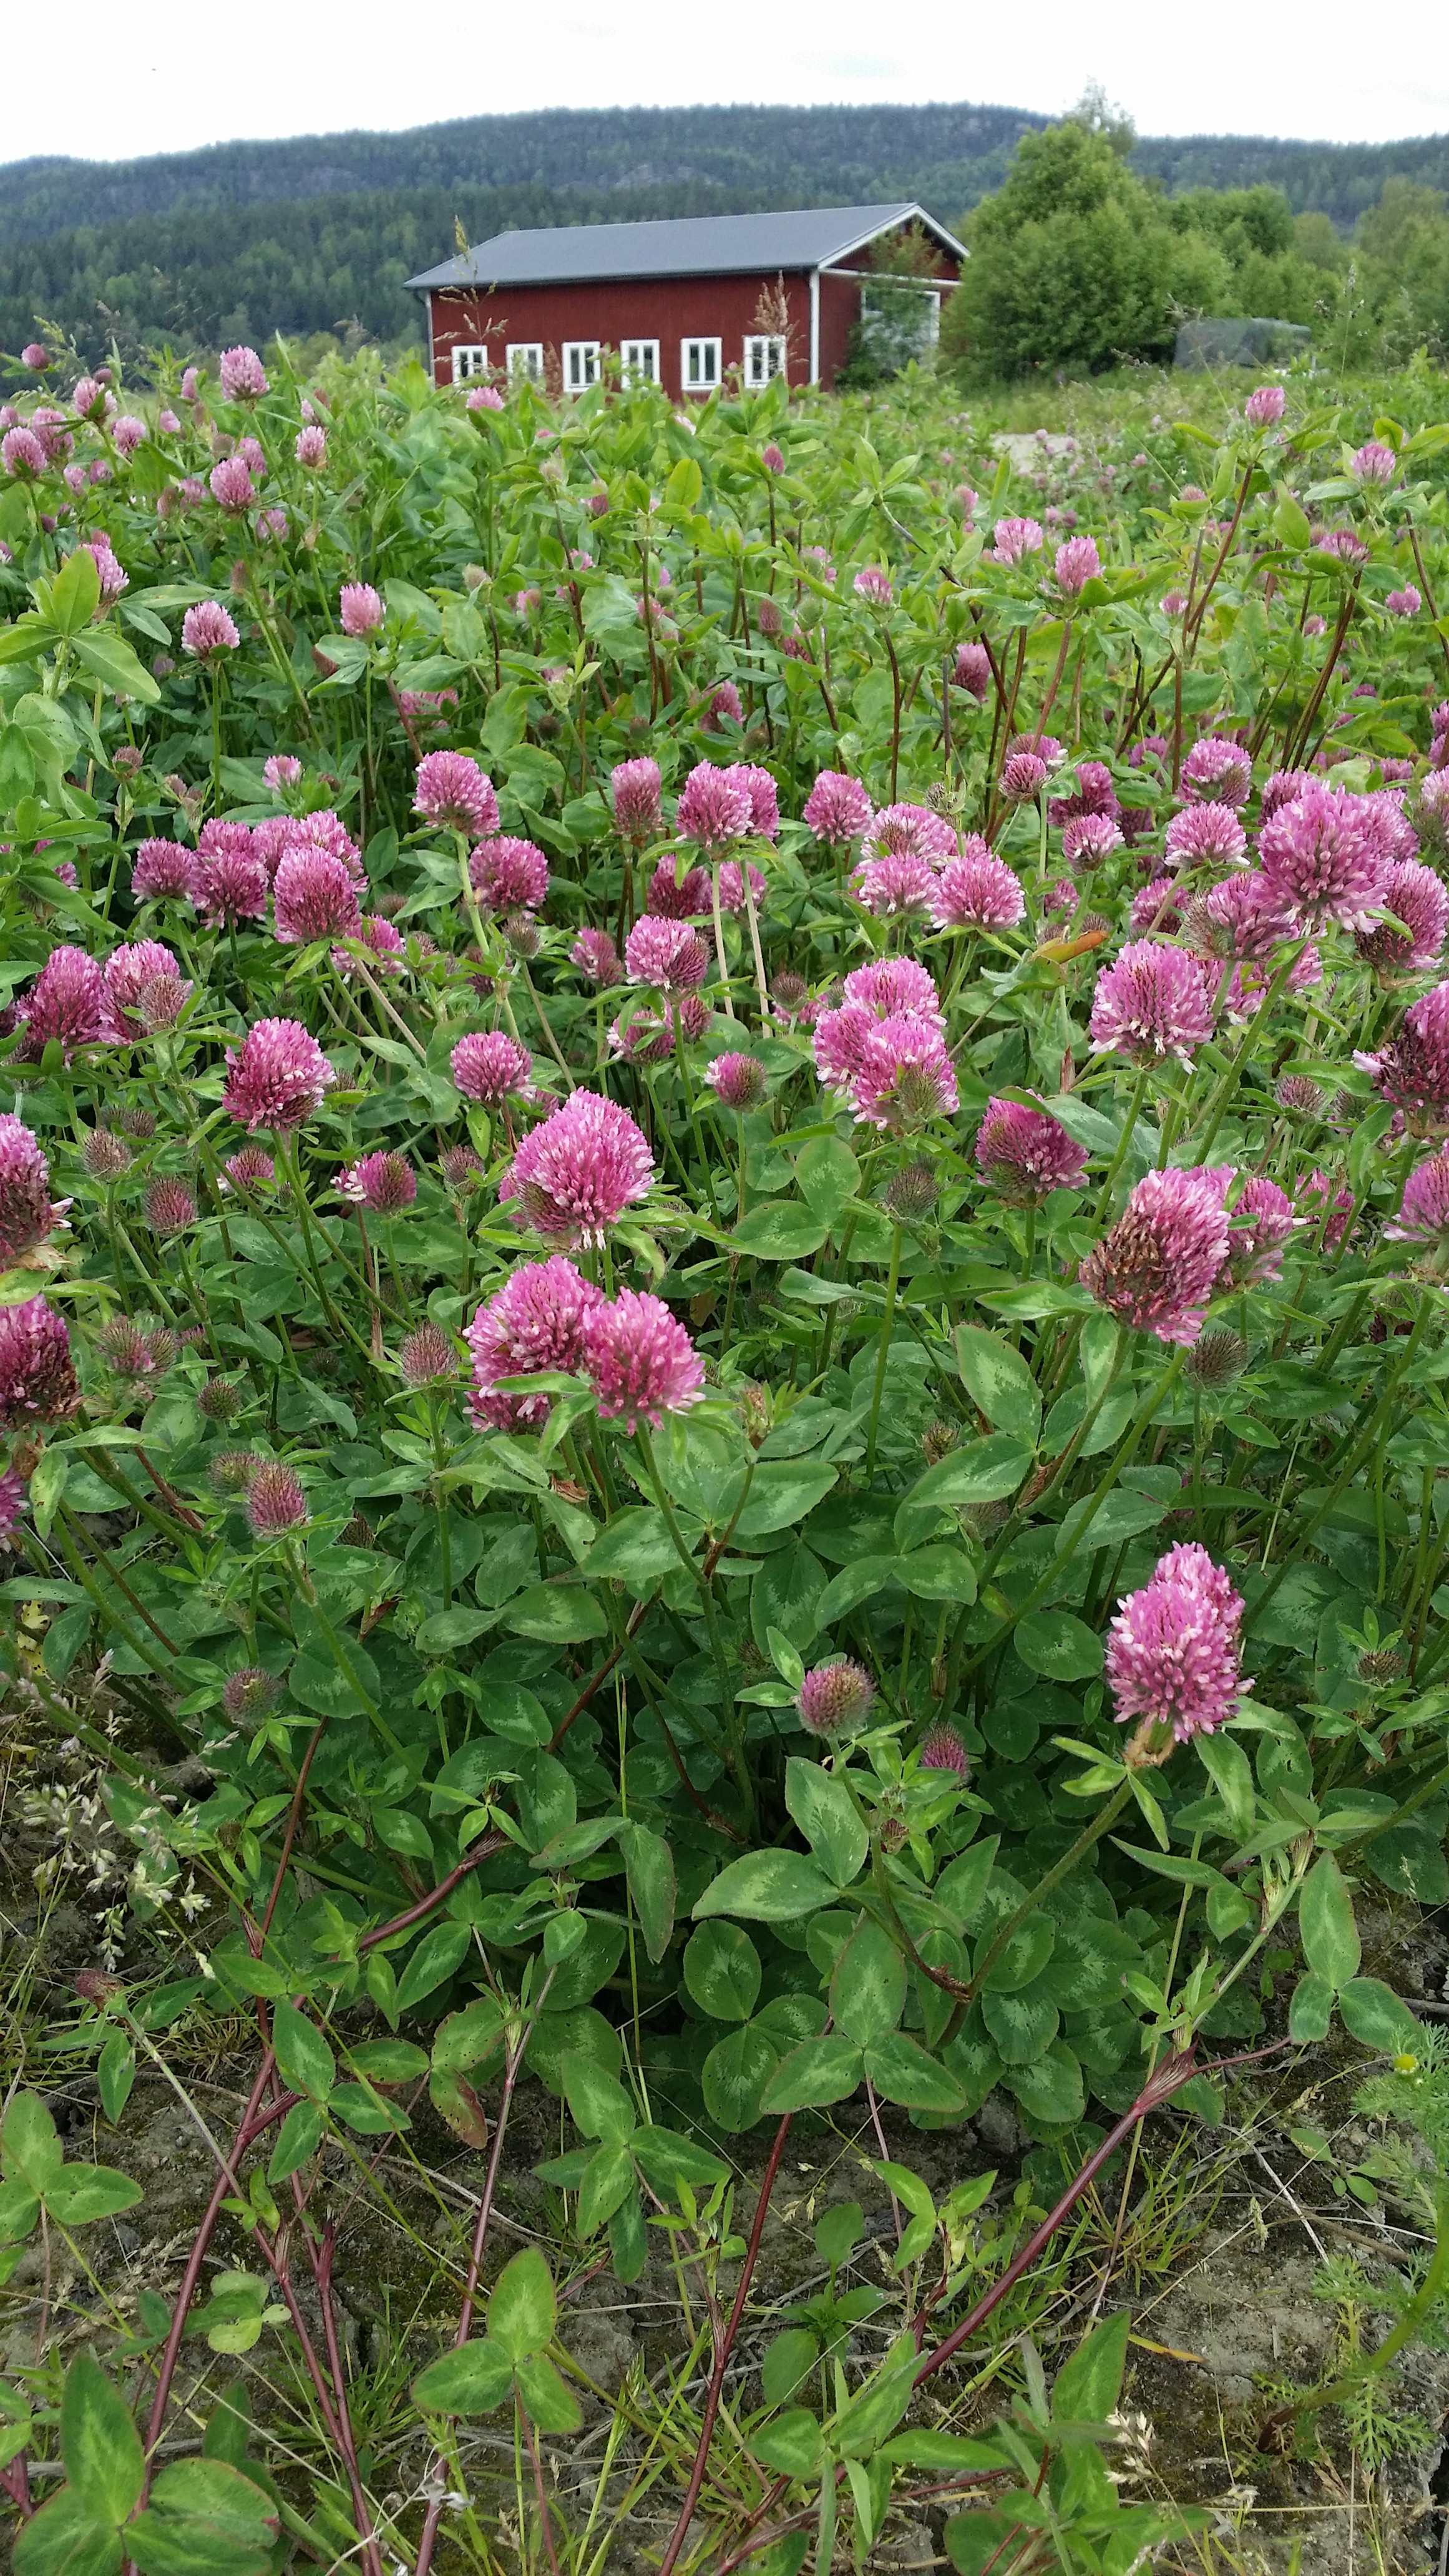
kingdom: Plantae
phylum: Tracheophyta
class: Magnoliopsida
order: Fabales
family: Fabaceae
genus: Trifolium
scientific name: Trifolium pratense
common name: Red clover
